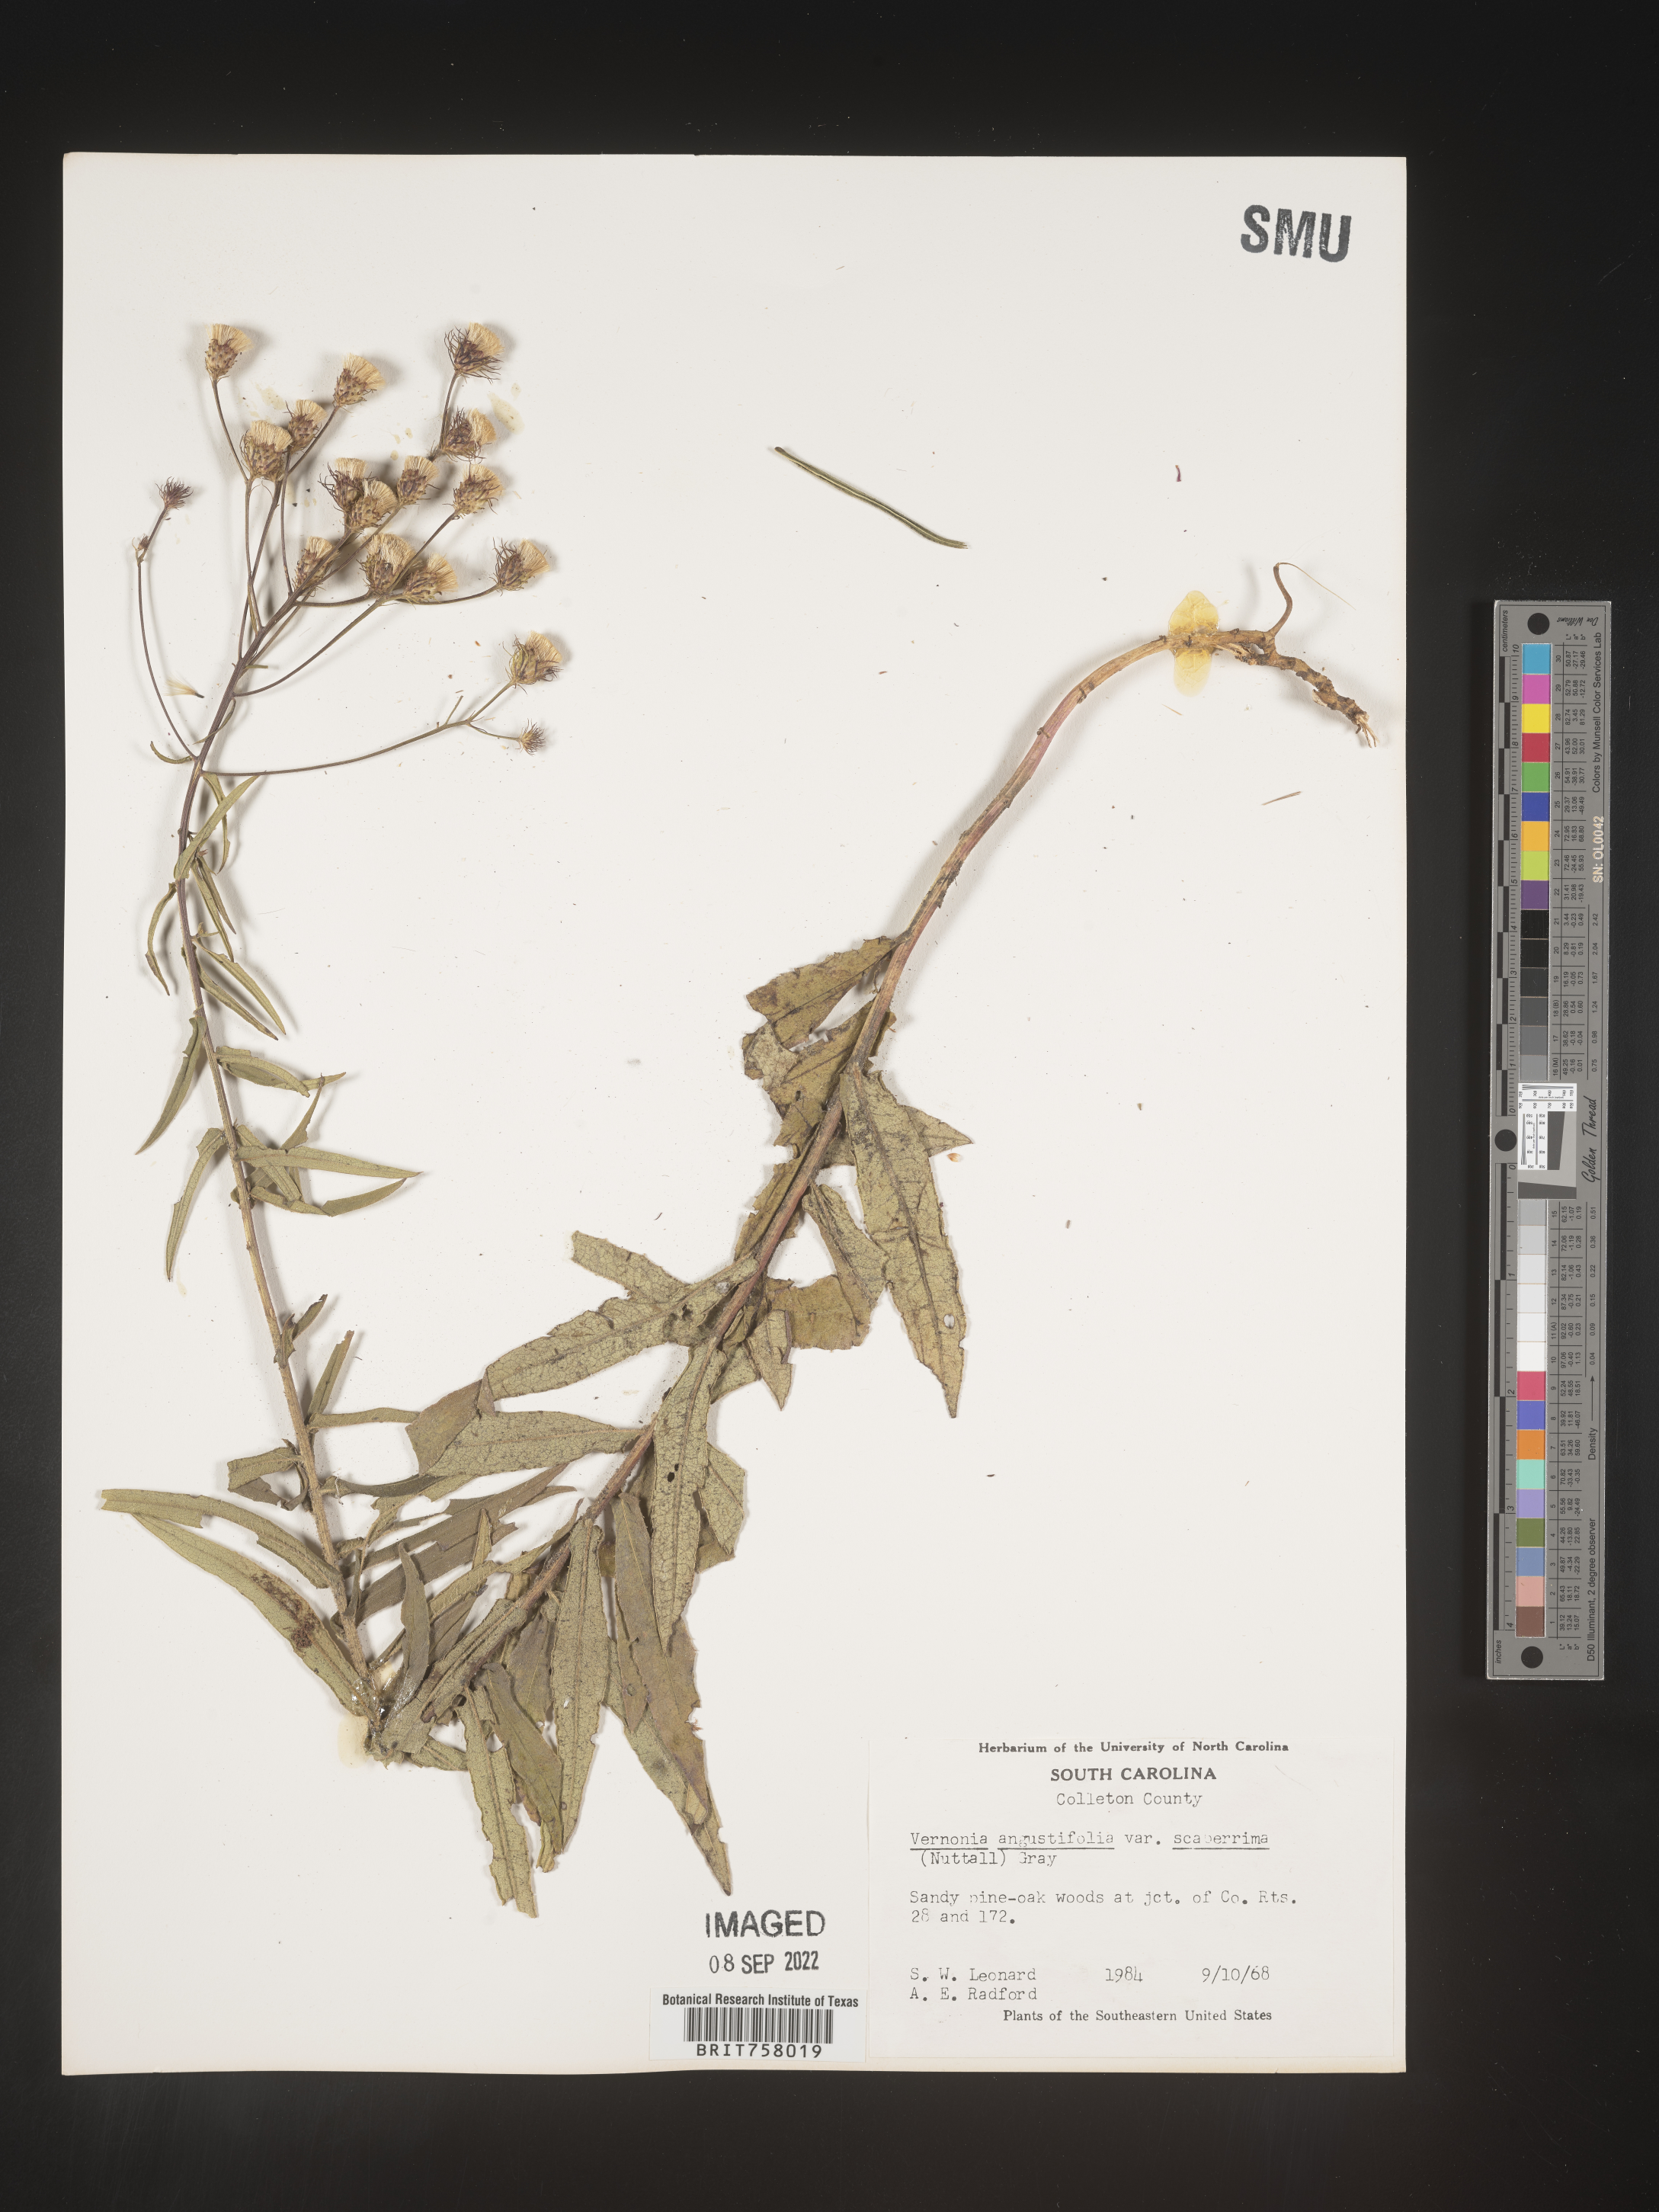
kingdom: Plantae
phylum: Tracheophyta
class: Magnoliopsida
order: Asterales
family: Asteraceae
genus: Vernonia
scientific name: Vernonia angustifolia
